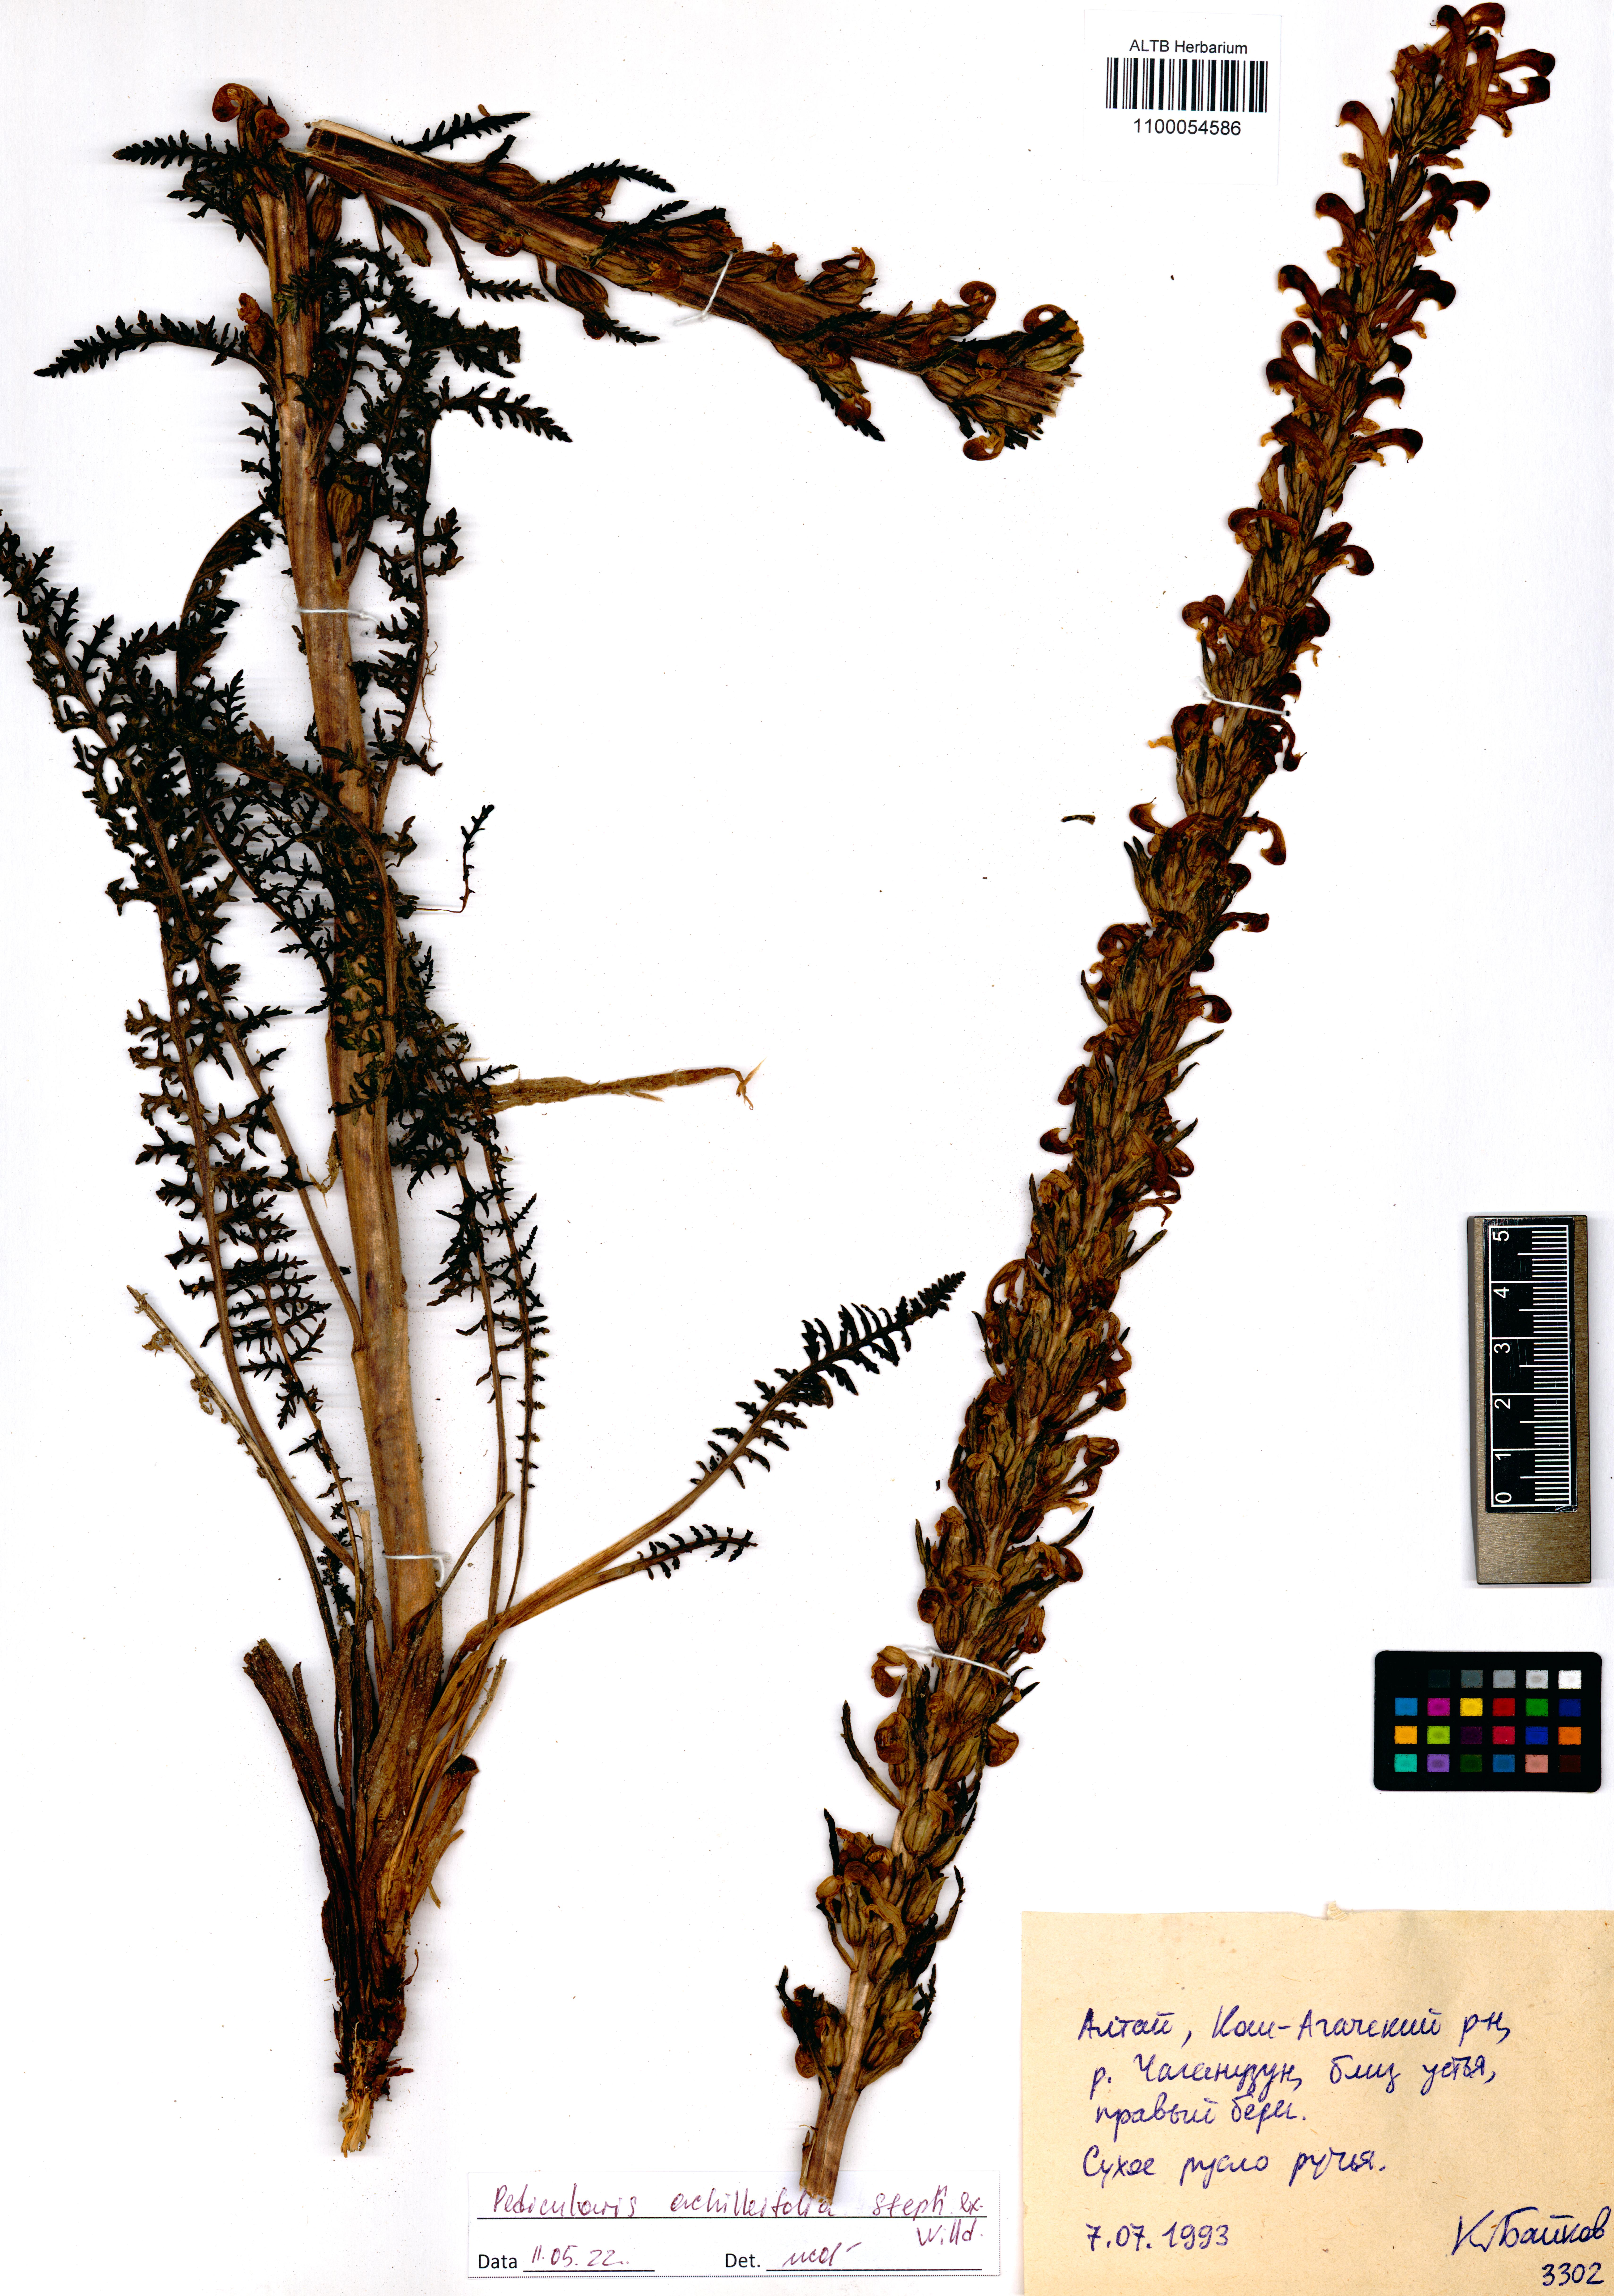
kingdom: Plantae
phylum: Tracheophyta
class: Magnoliopsida
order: Lamiales
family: Orobanchaceae
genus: Pedicularis
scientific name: Pedicularis achilleifolia
